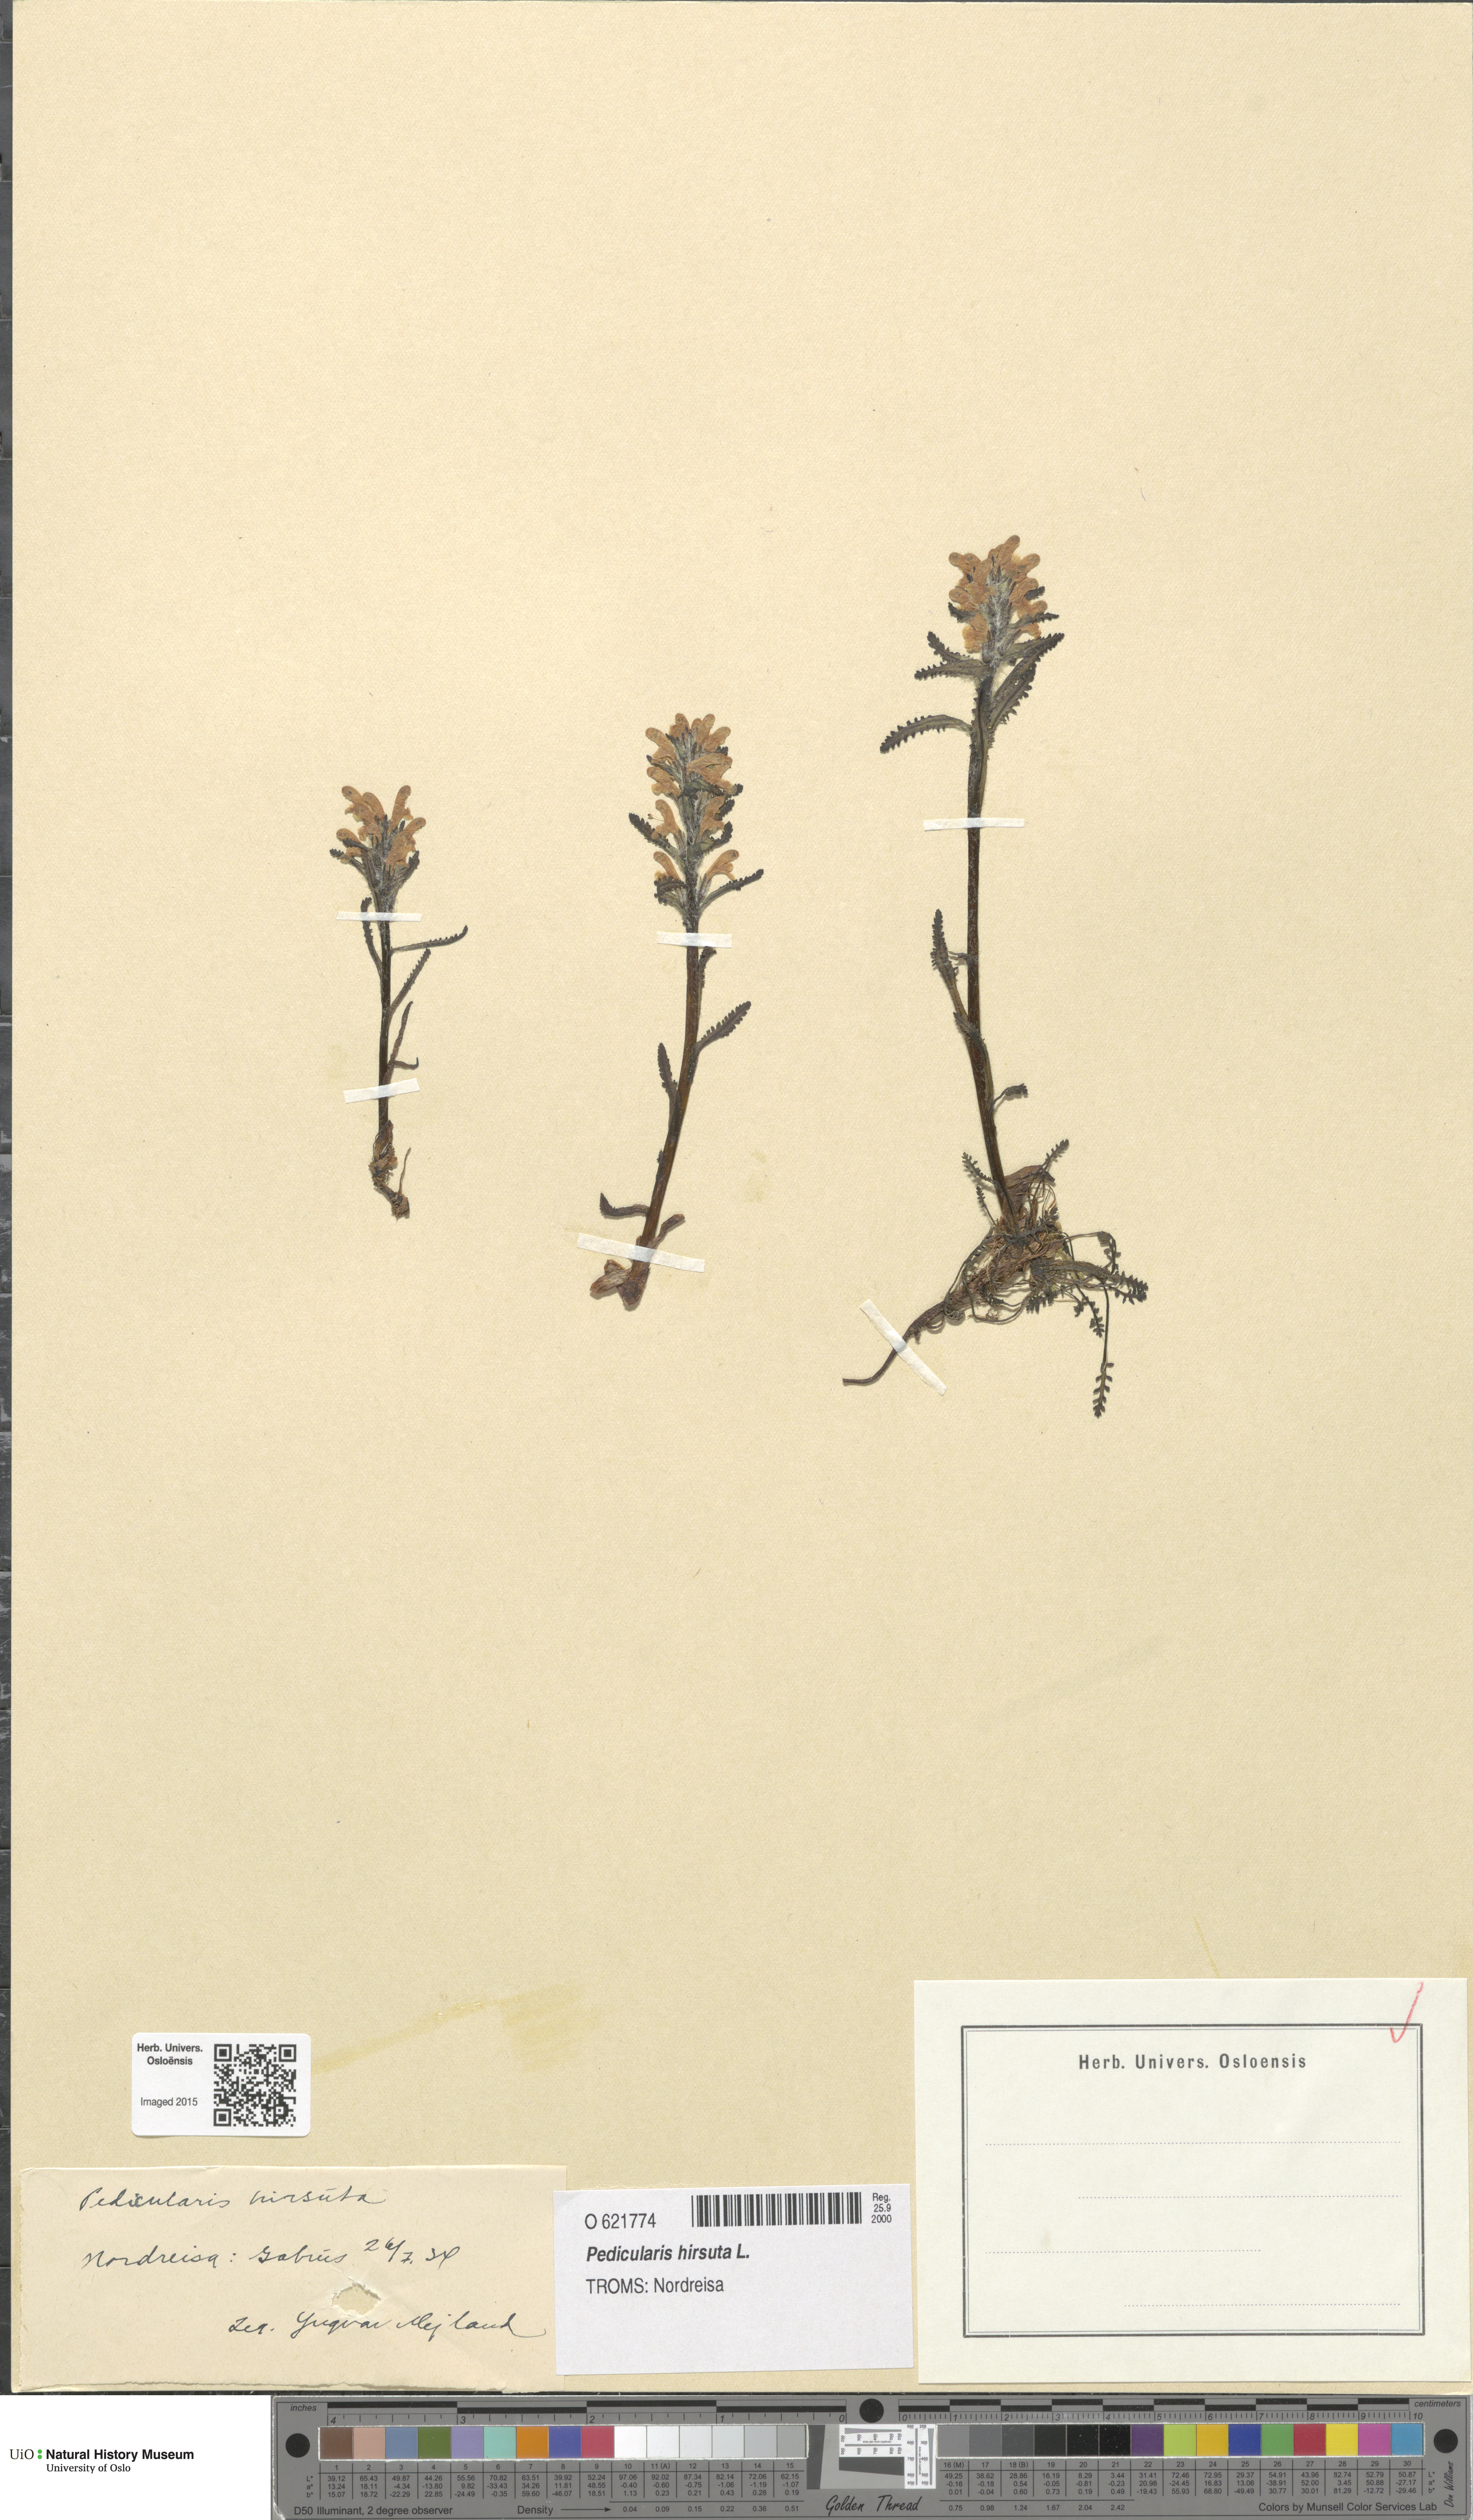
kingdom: Plantae
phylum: Tracheophyta
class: Magnoliopsida
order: Lamiales
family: Orobanchaceae
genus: Pedicularis
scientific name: Pedicularis hirsuta
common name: Hairy lousewort
